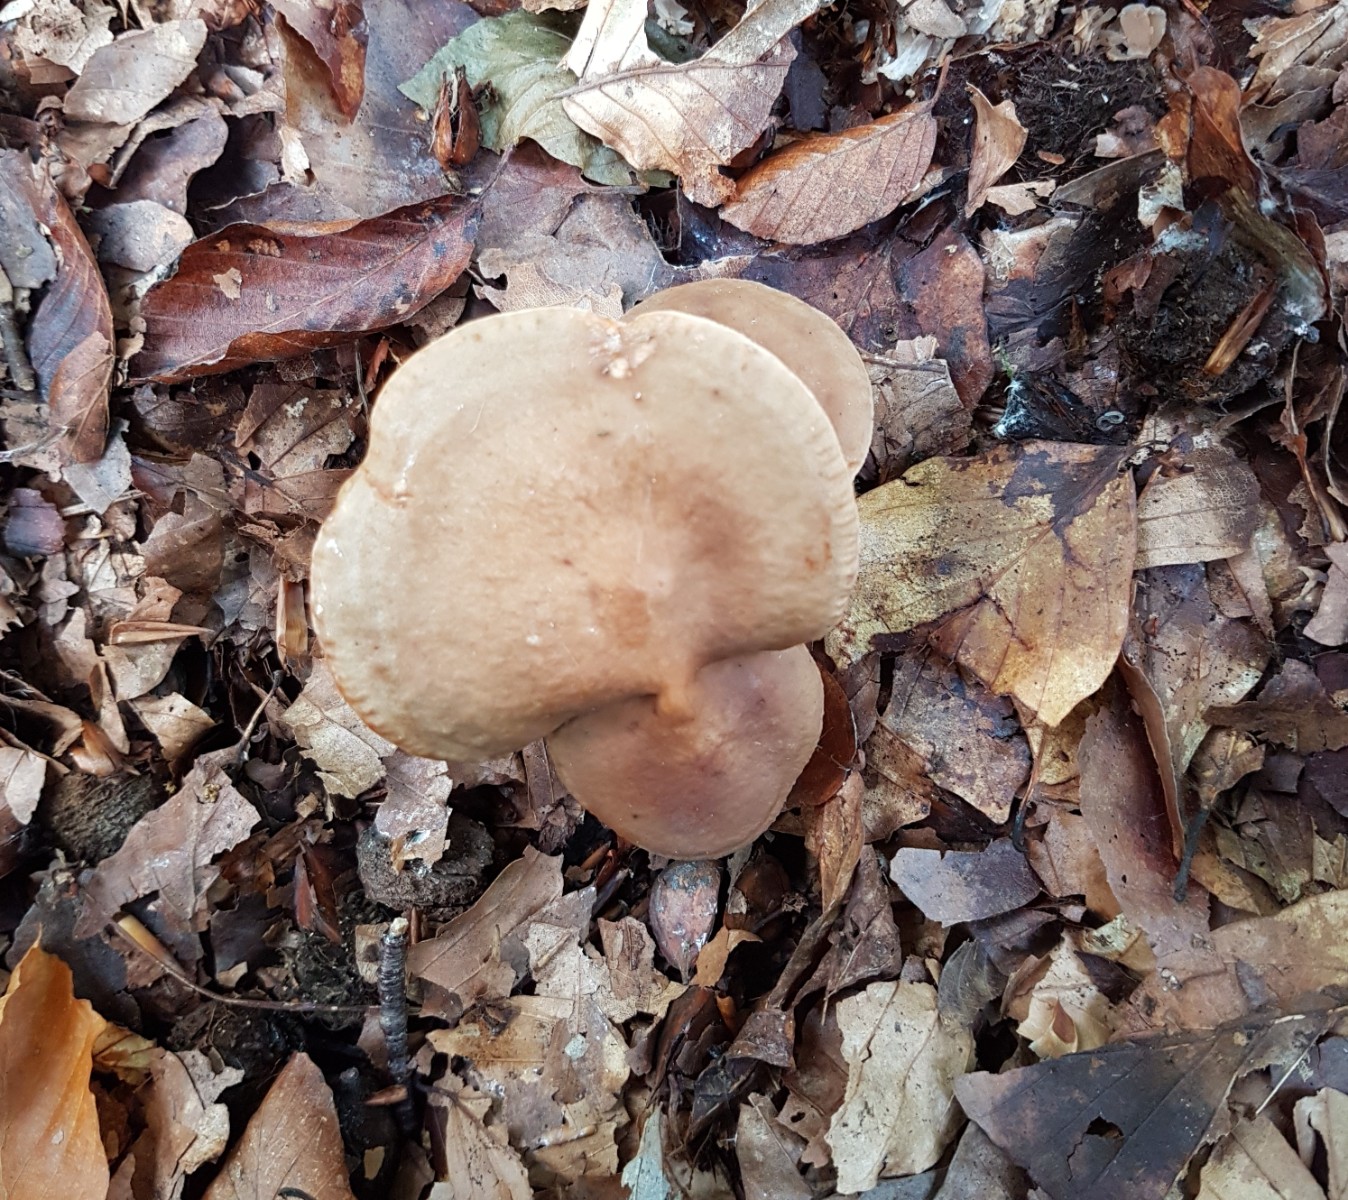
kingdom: Fungi
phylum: Basidiomycota
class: Agaricomycetes
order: Russulales
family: Russulaceae
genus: Lactarius
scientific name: Lactarius subdulcis
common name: sødlig mælkehat
